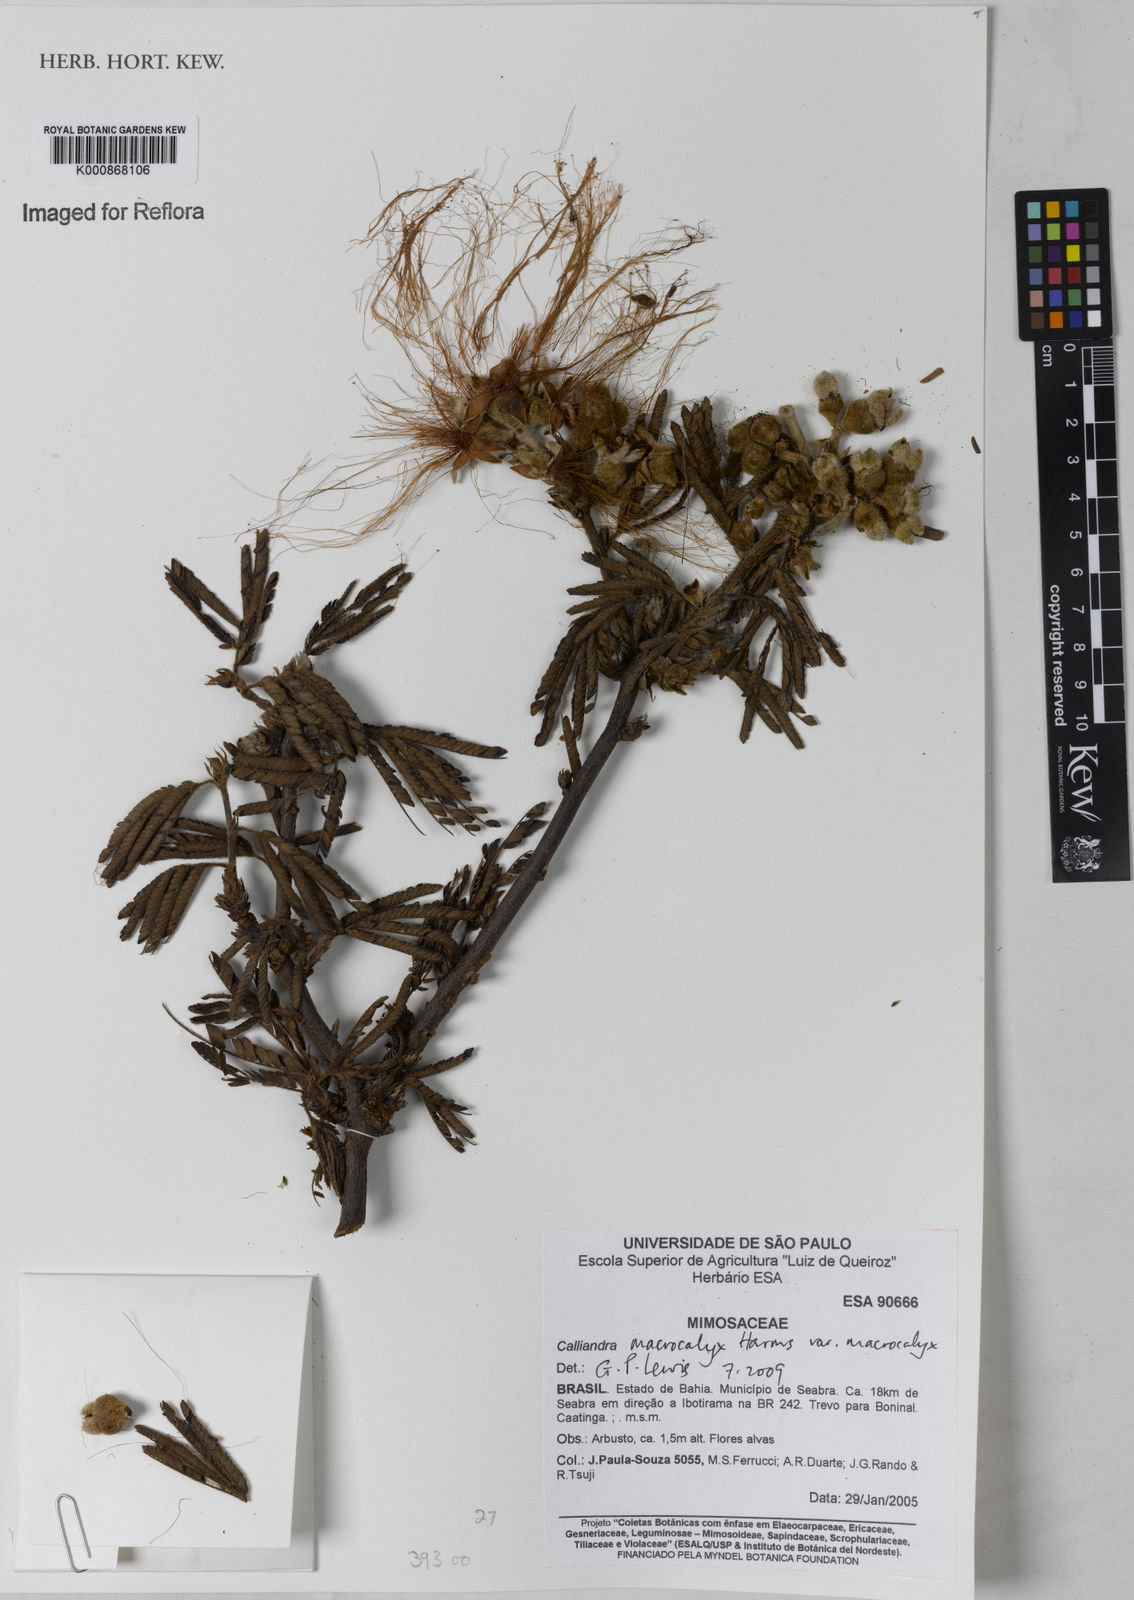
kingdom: Plantae
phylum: Tracheophyta
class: Magnoliopsida
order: Fabales
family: Fabaceae
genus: Calliandra
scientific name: Calliandra macrocalyx
